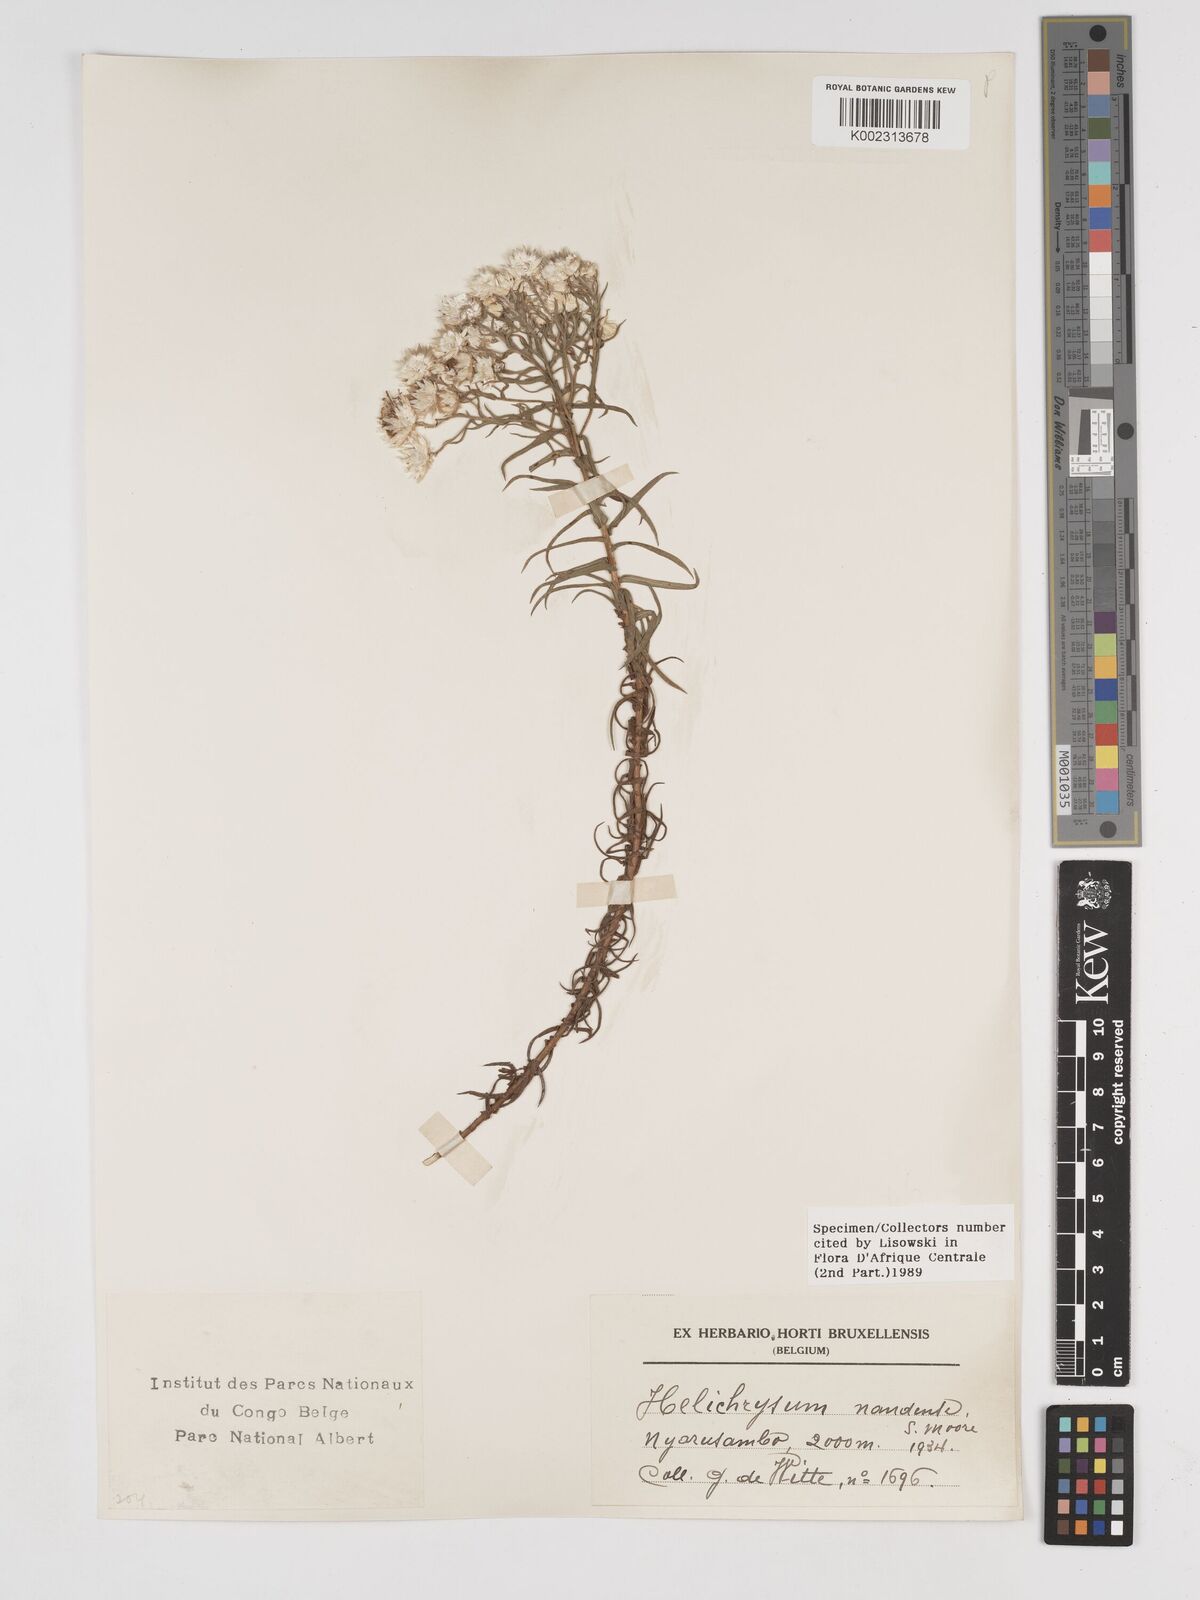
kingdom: Plantae
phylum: Tracheophyta
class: Magnoliopsida
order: Asterales
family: Asteraceae
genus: Helichrysum
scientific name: Helichrysum argyranthum
